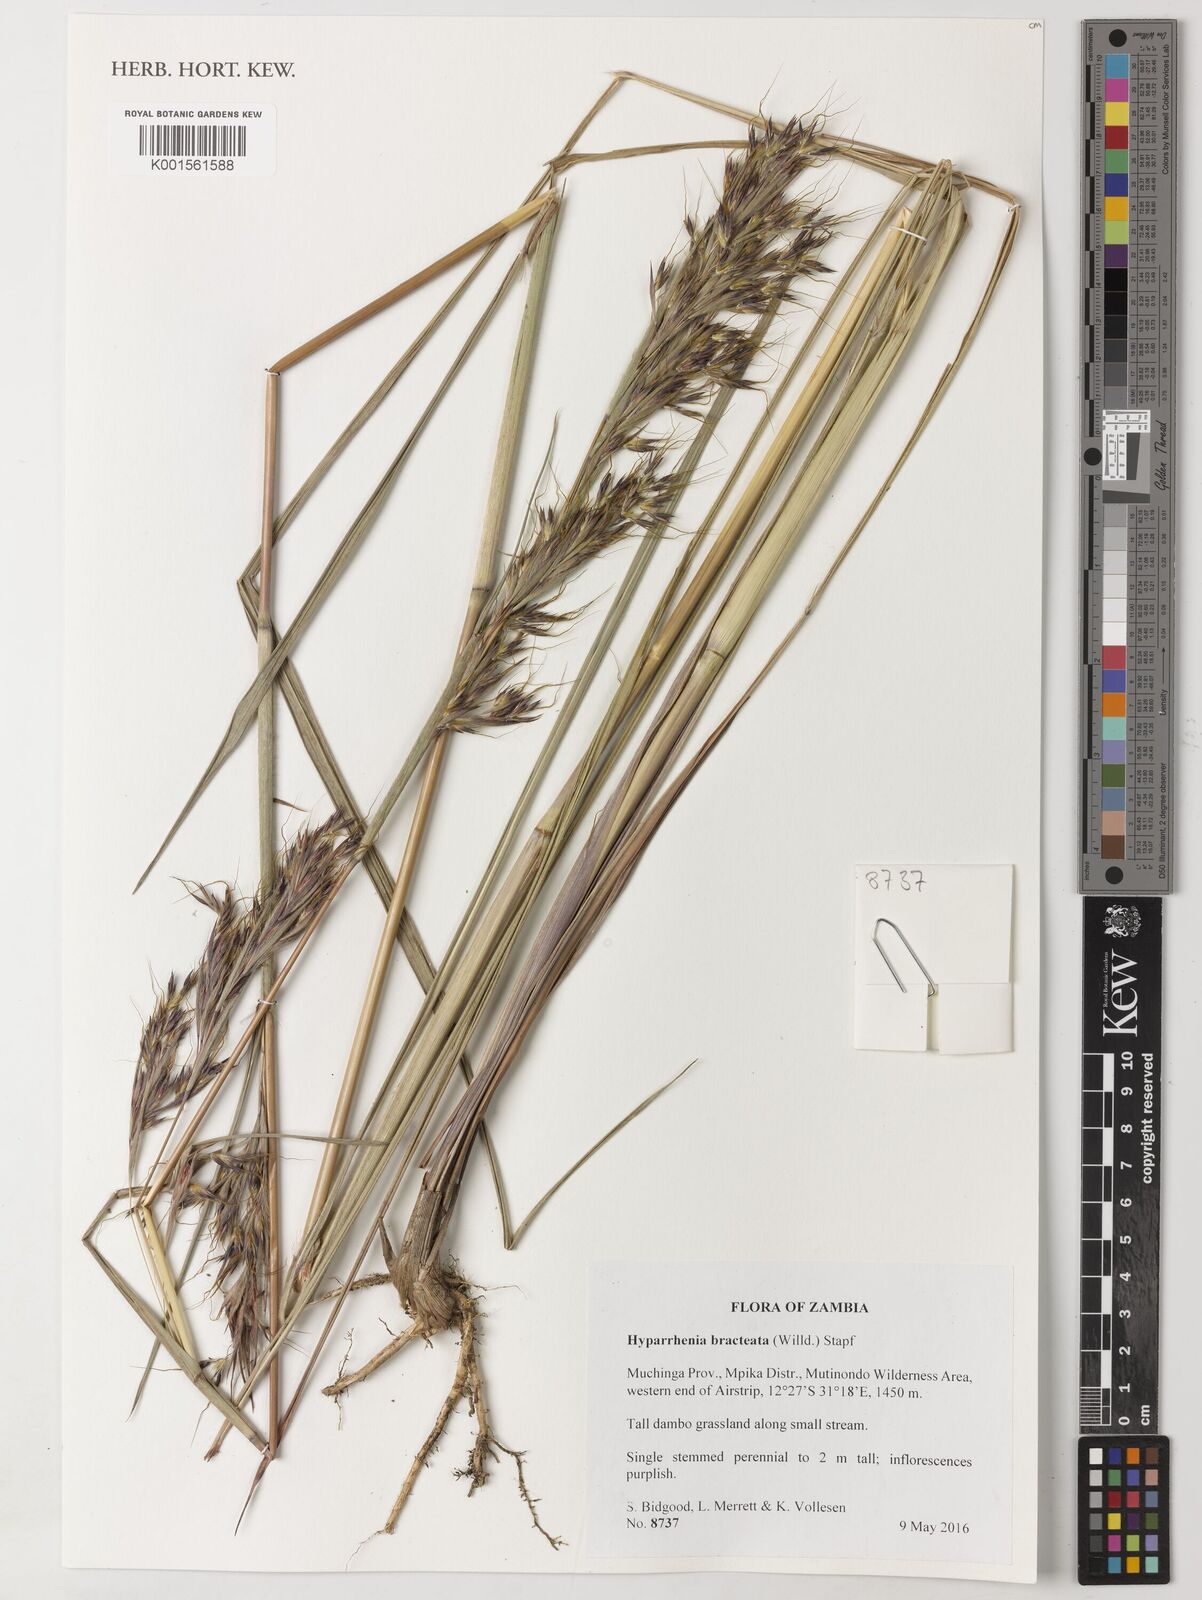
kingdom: Plantae
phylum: Tracheophyta
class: Liliopsida
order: Poales
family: Poaceae
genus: Hyparrhenia
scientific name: Hyparrhenia bracteata
